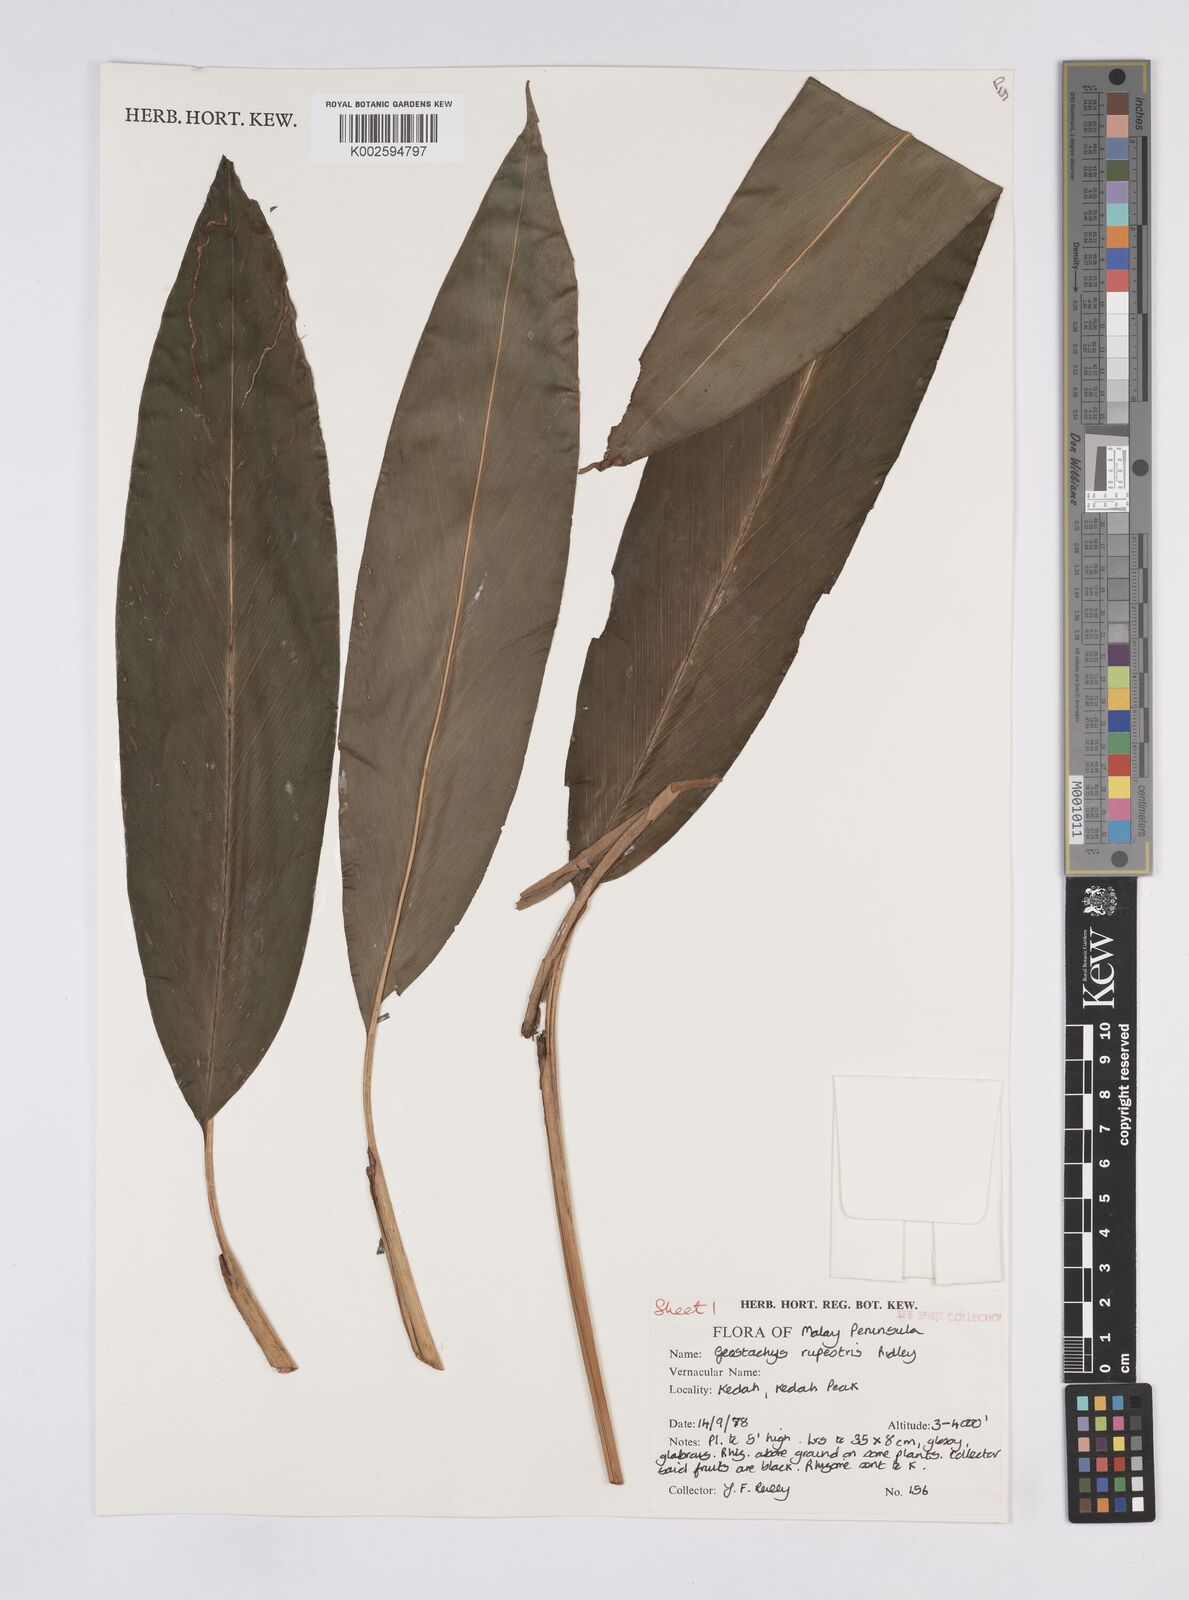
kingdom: Plantae
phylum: Tracheophyta
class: Liliopsida
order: Zingiberales
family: Zingiberaceae
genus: Geostachys
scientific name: Geostachys rupestris
